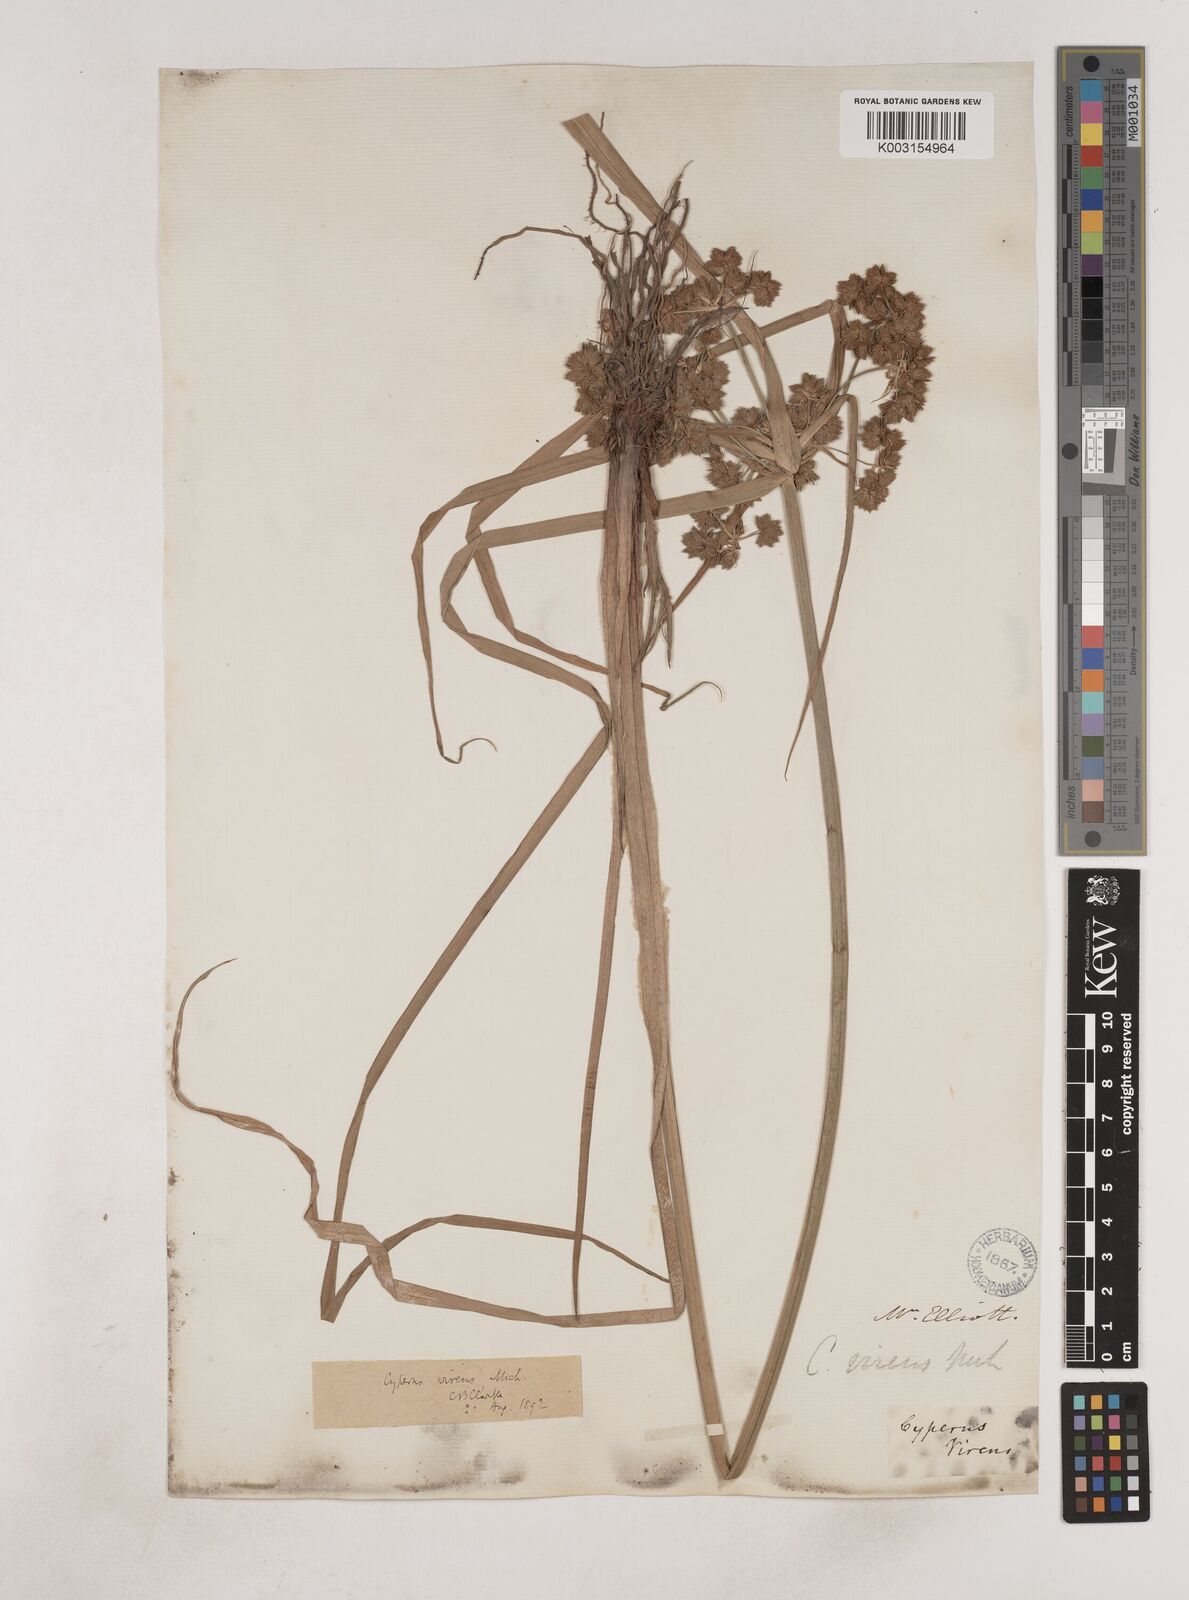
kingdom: Plantae
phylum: Tracheophyta
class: Liliopsida
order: Poales
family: Cyperaceae
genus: Cyperus
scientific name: Cyperus virens
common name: Green flatsedge
